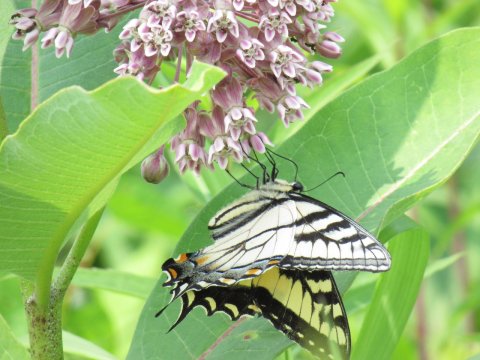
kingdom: Animalia
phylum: Arthropoda
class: Insecta
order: Lepidoptera
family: Papilionidae
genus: Pterourus
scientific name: Pterourus
